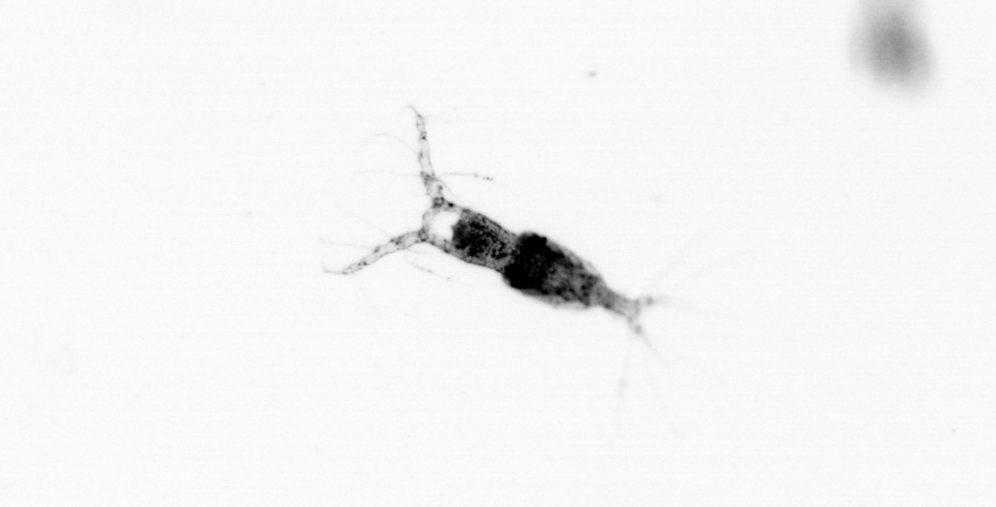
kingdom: Animalia
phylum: Arthropoda
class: Copepoda
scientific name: Copepoda
